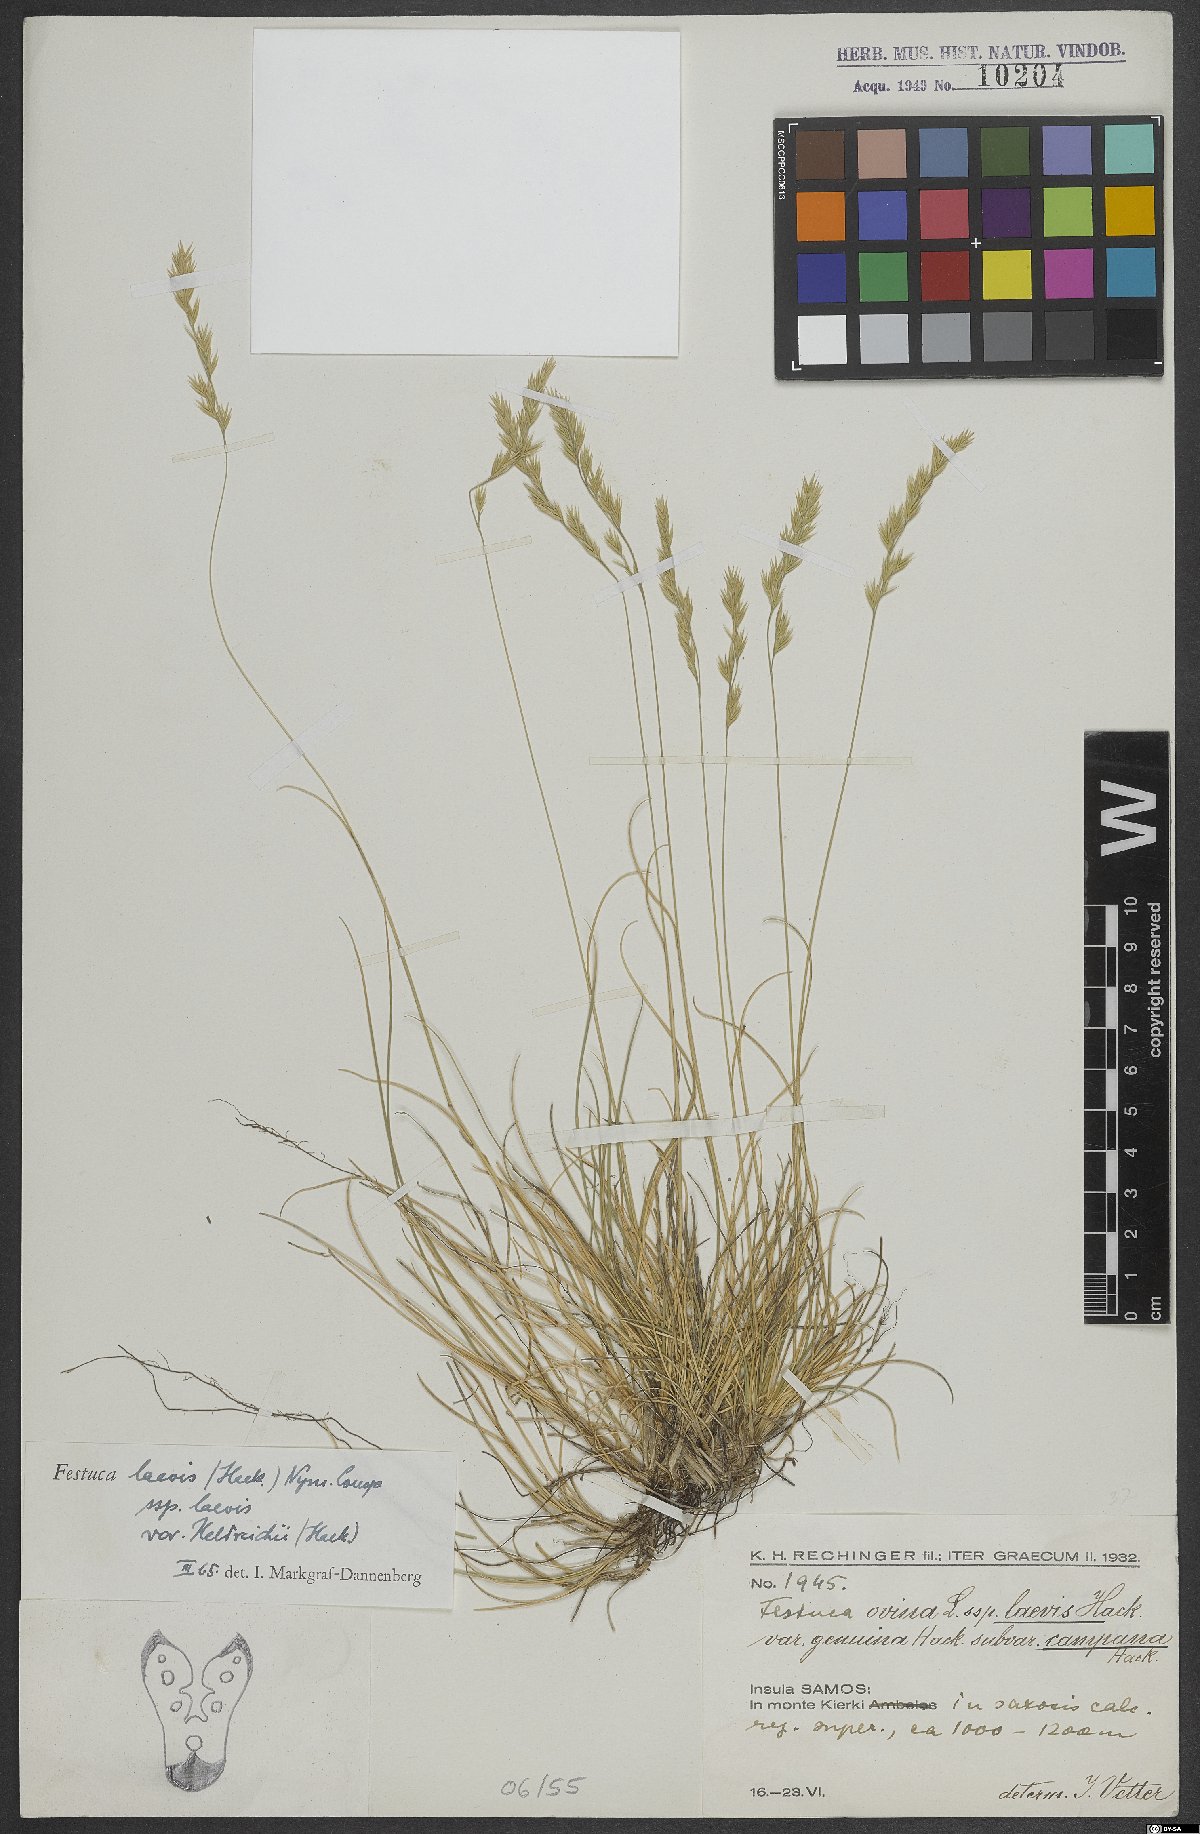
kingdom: Plantae
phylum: Tracheophyta
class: Liliopsida
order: Poales
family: Poaceae
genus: Festuca
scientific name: Festuca circummediterranea
